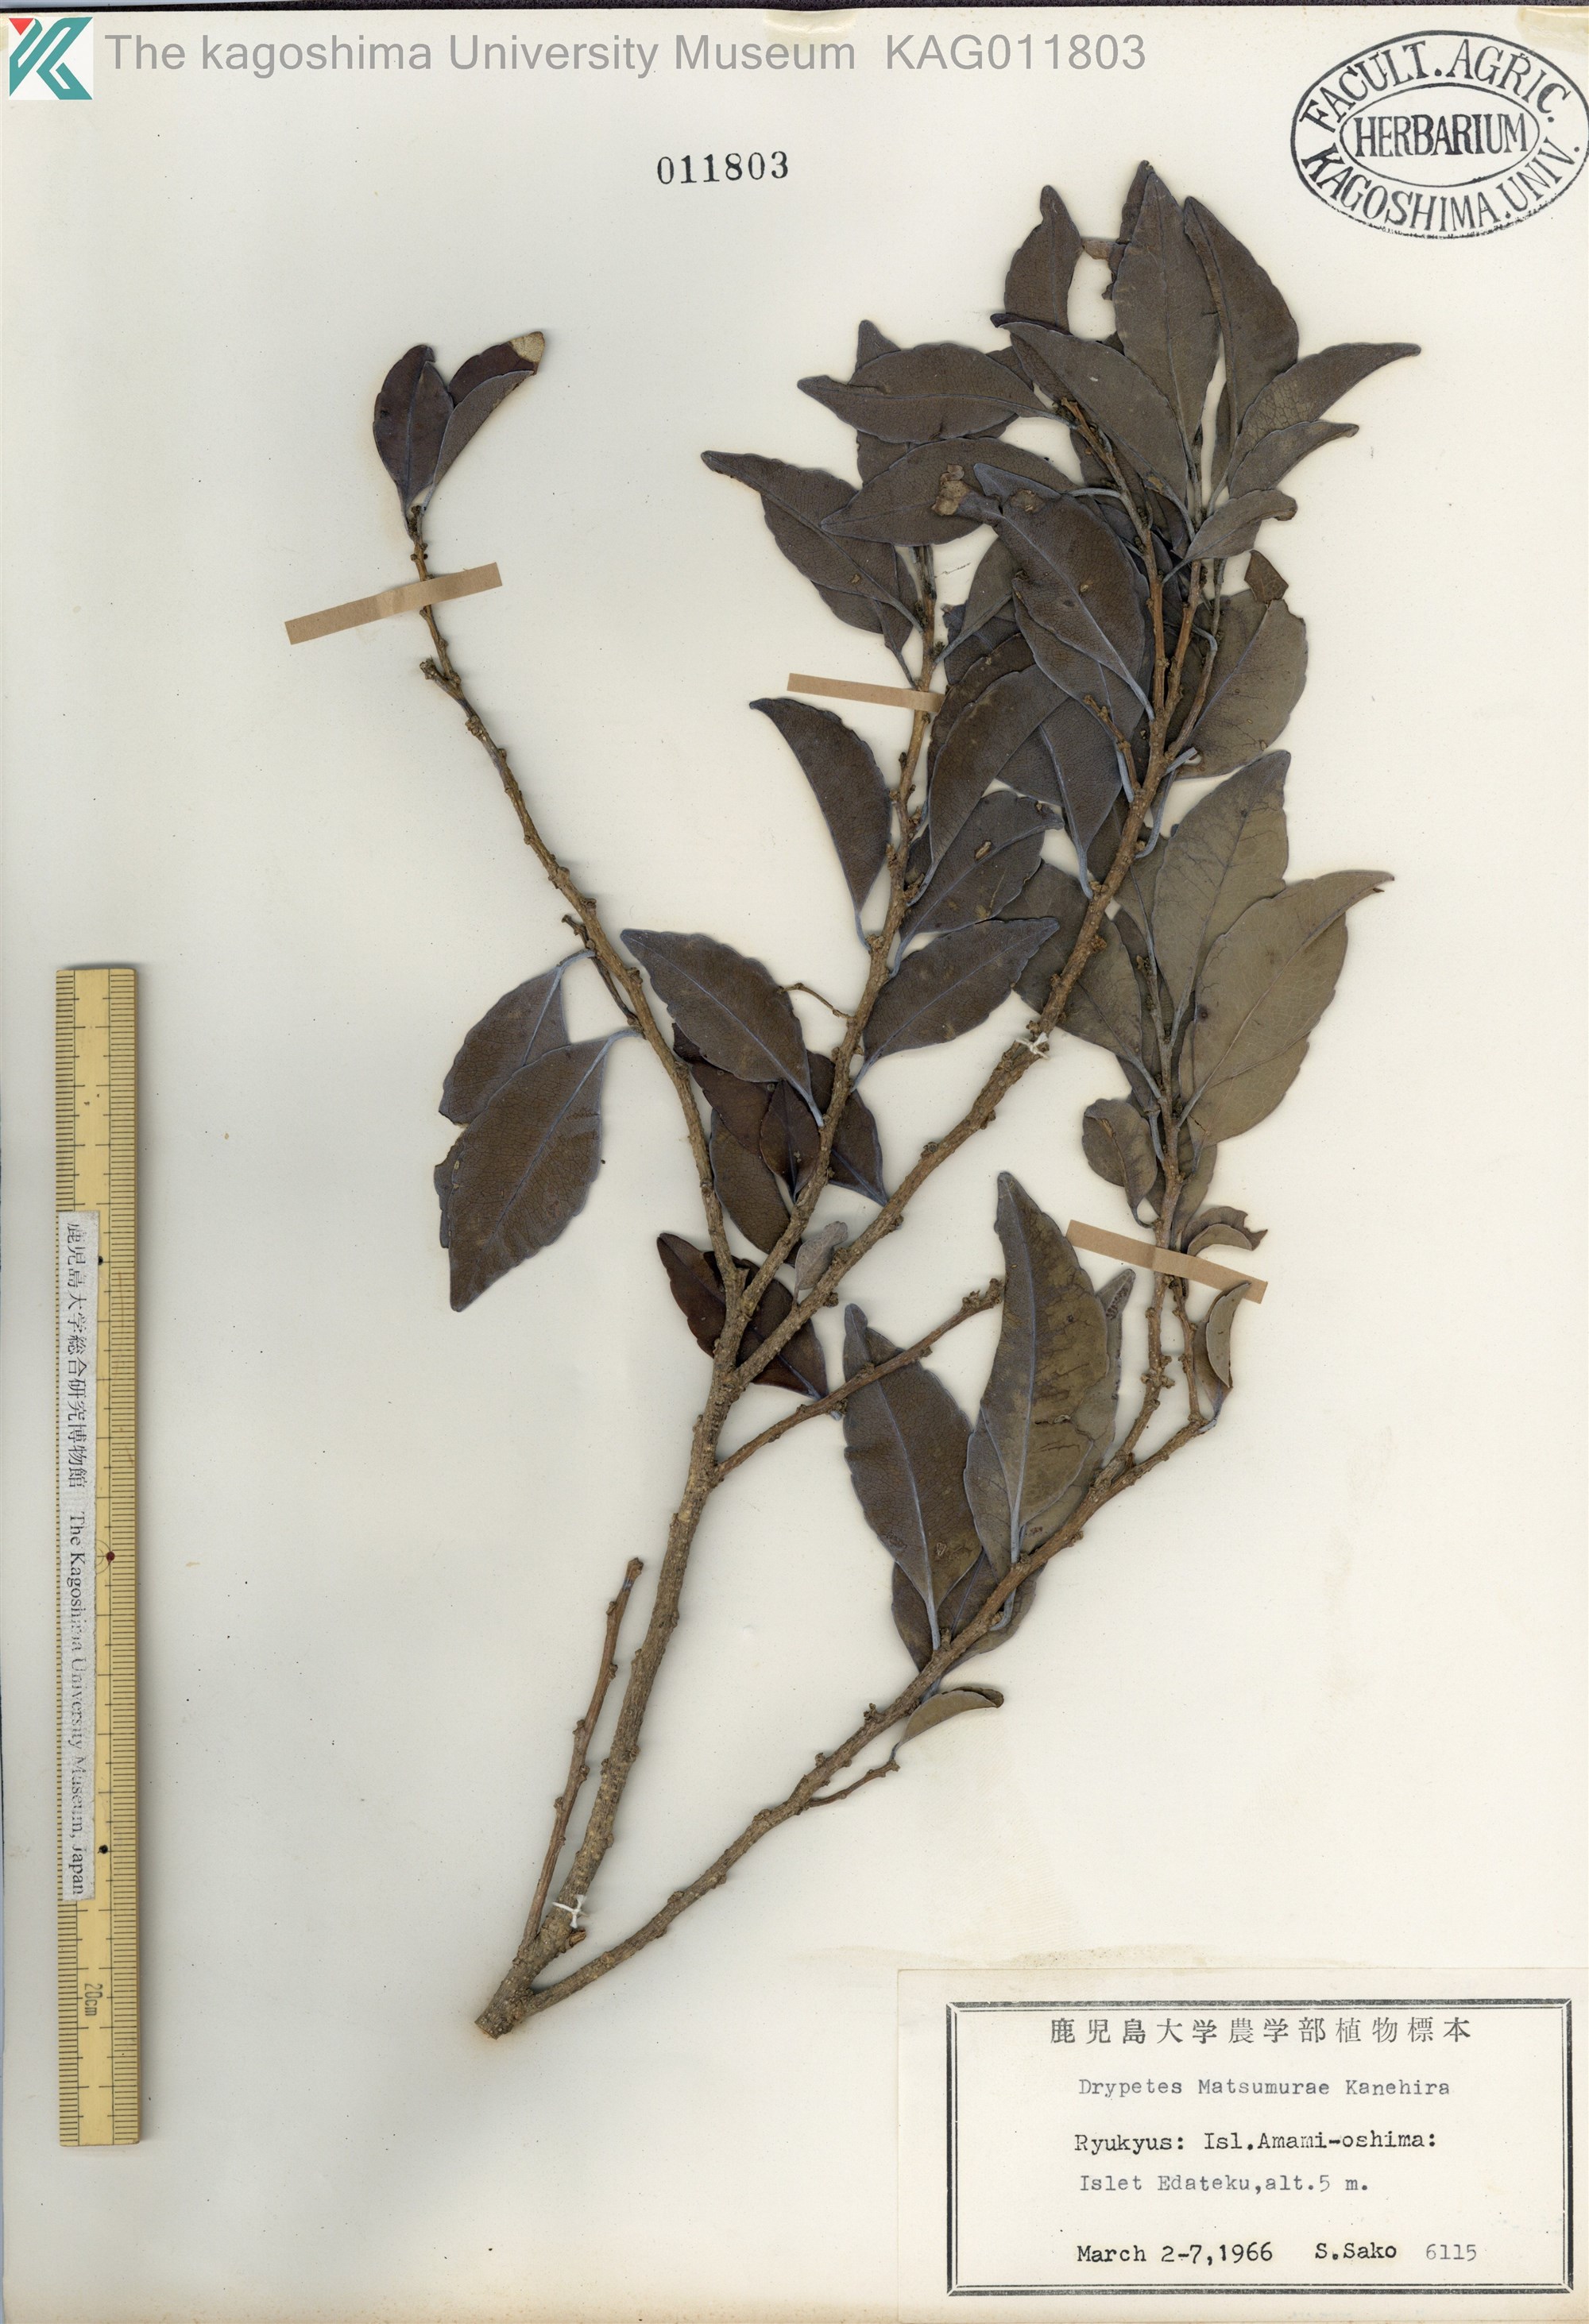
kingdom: Plantae
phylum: Tracheophyta
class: Magnoliopsida
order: Malpighiales
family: Putranjivaceae
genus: Putranjiva
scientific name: Putranjiva matsumurae
